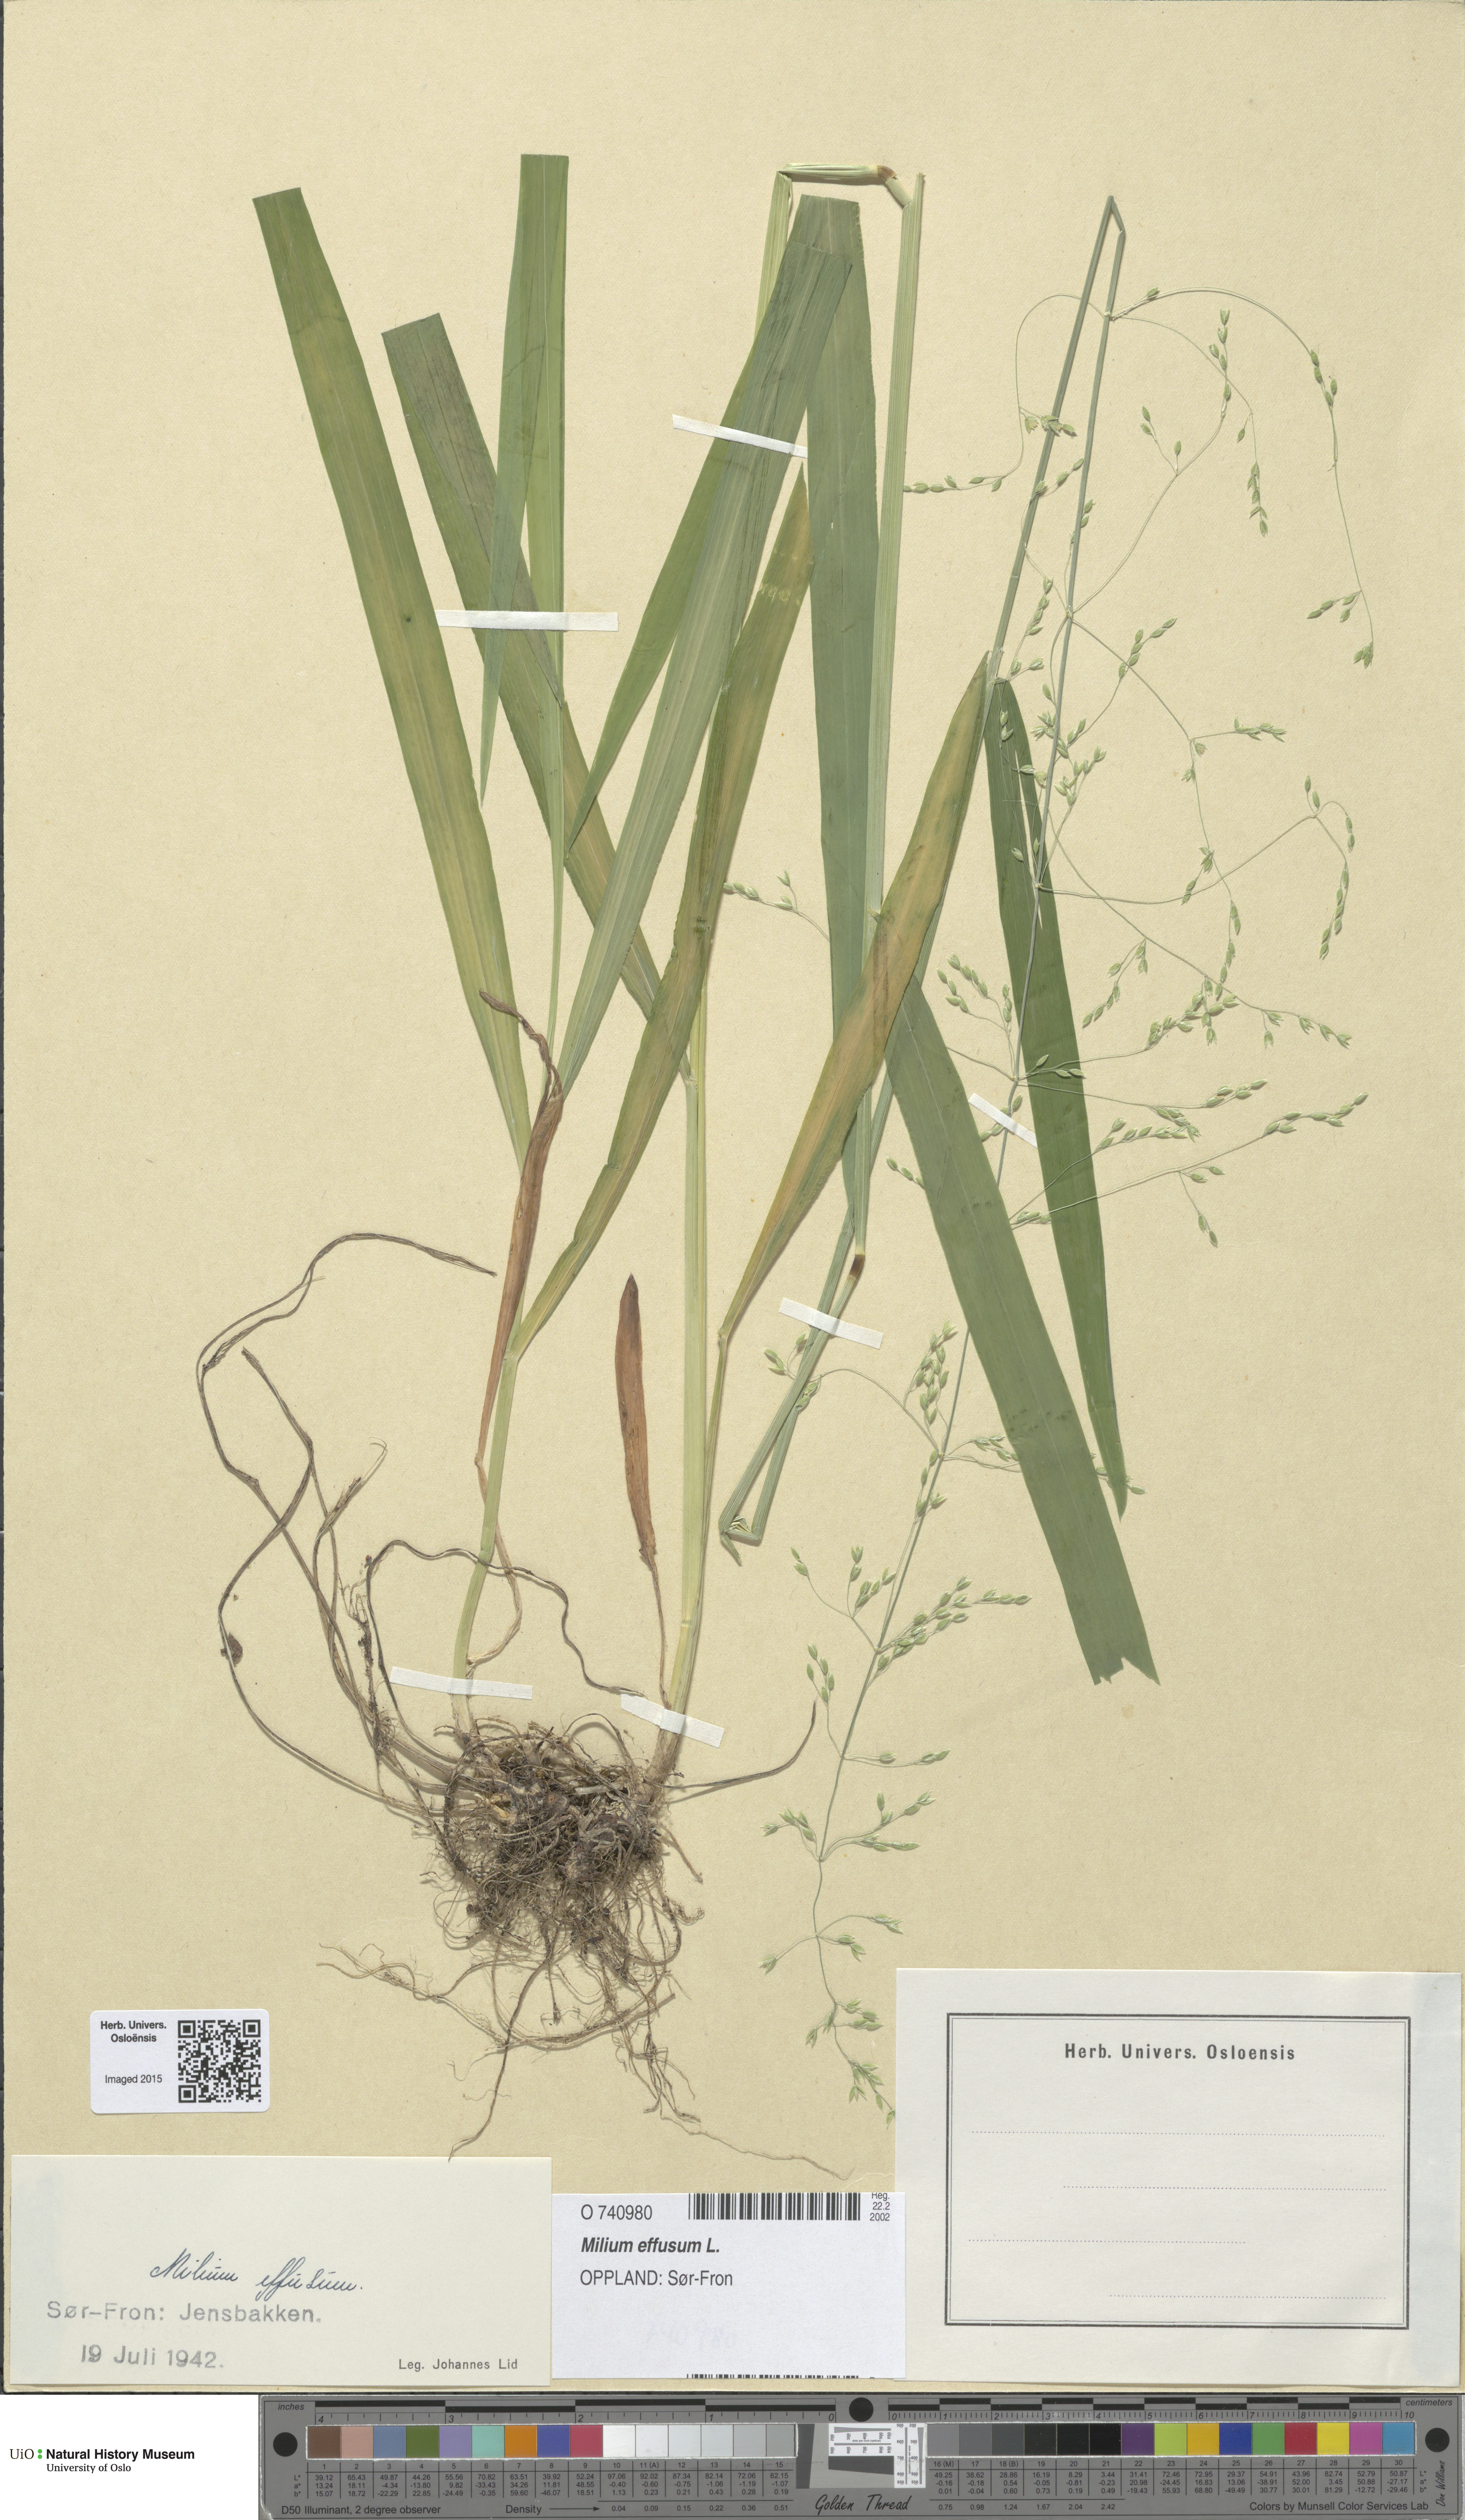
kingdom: Plantae
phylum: Tracheophyta
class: Liliopsida
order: Poales
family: Poaceae
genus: Milium
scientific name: Milium effusum
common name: Wood millet
